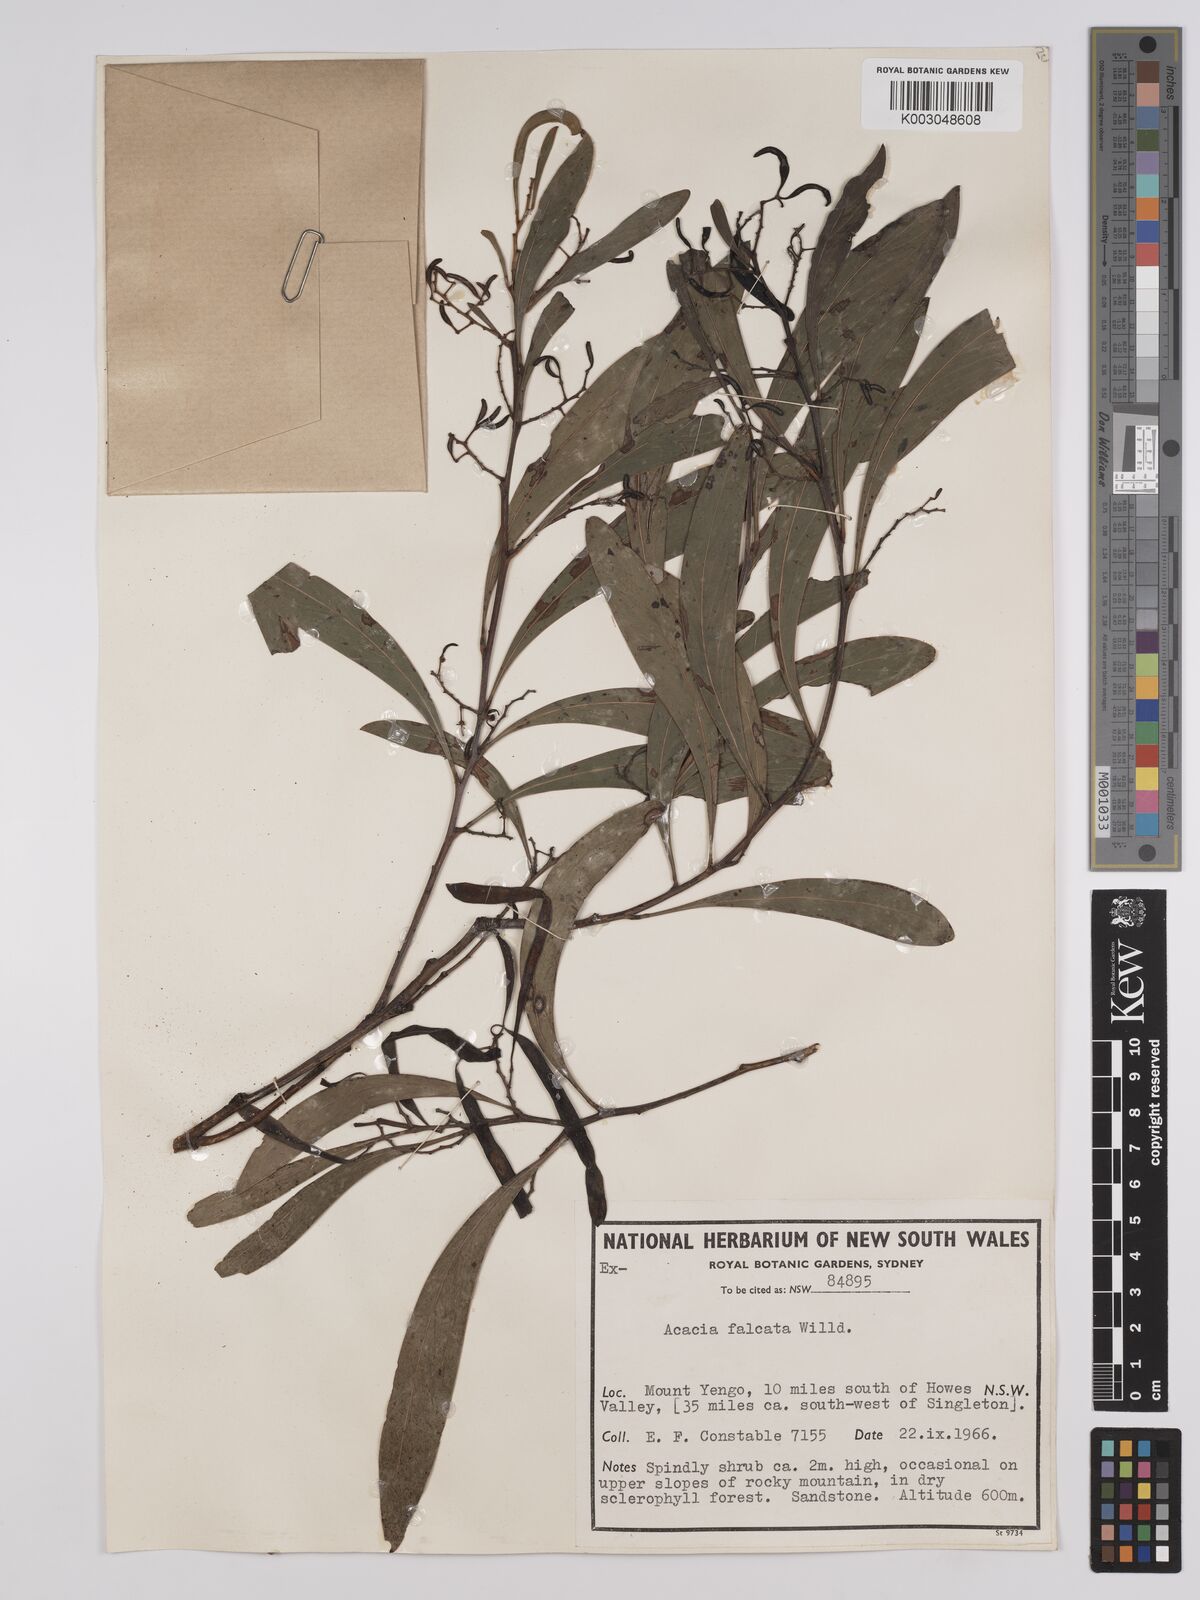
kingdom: Plantae
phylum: Tracheophyta
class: Magnoliopsida
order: Fabales
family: Fabaceae
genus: Acacia
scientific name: Acacia falcata
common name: Burra acacia
